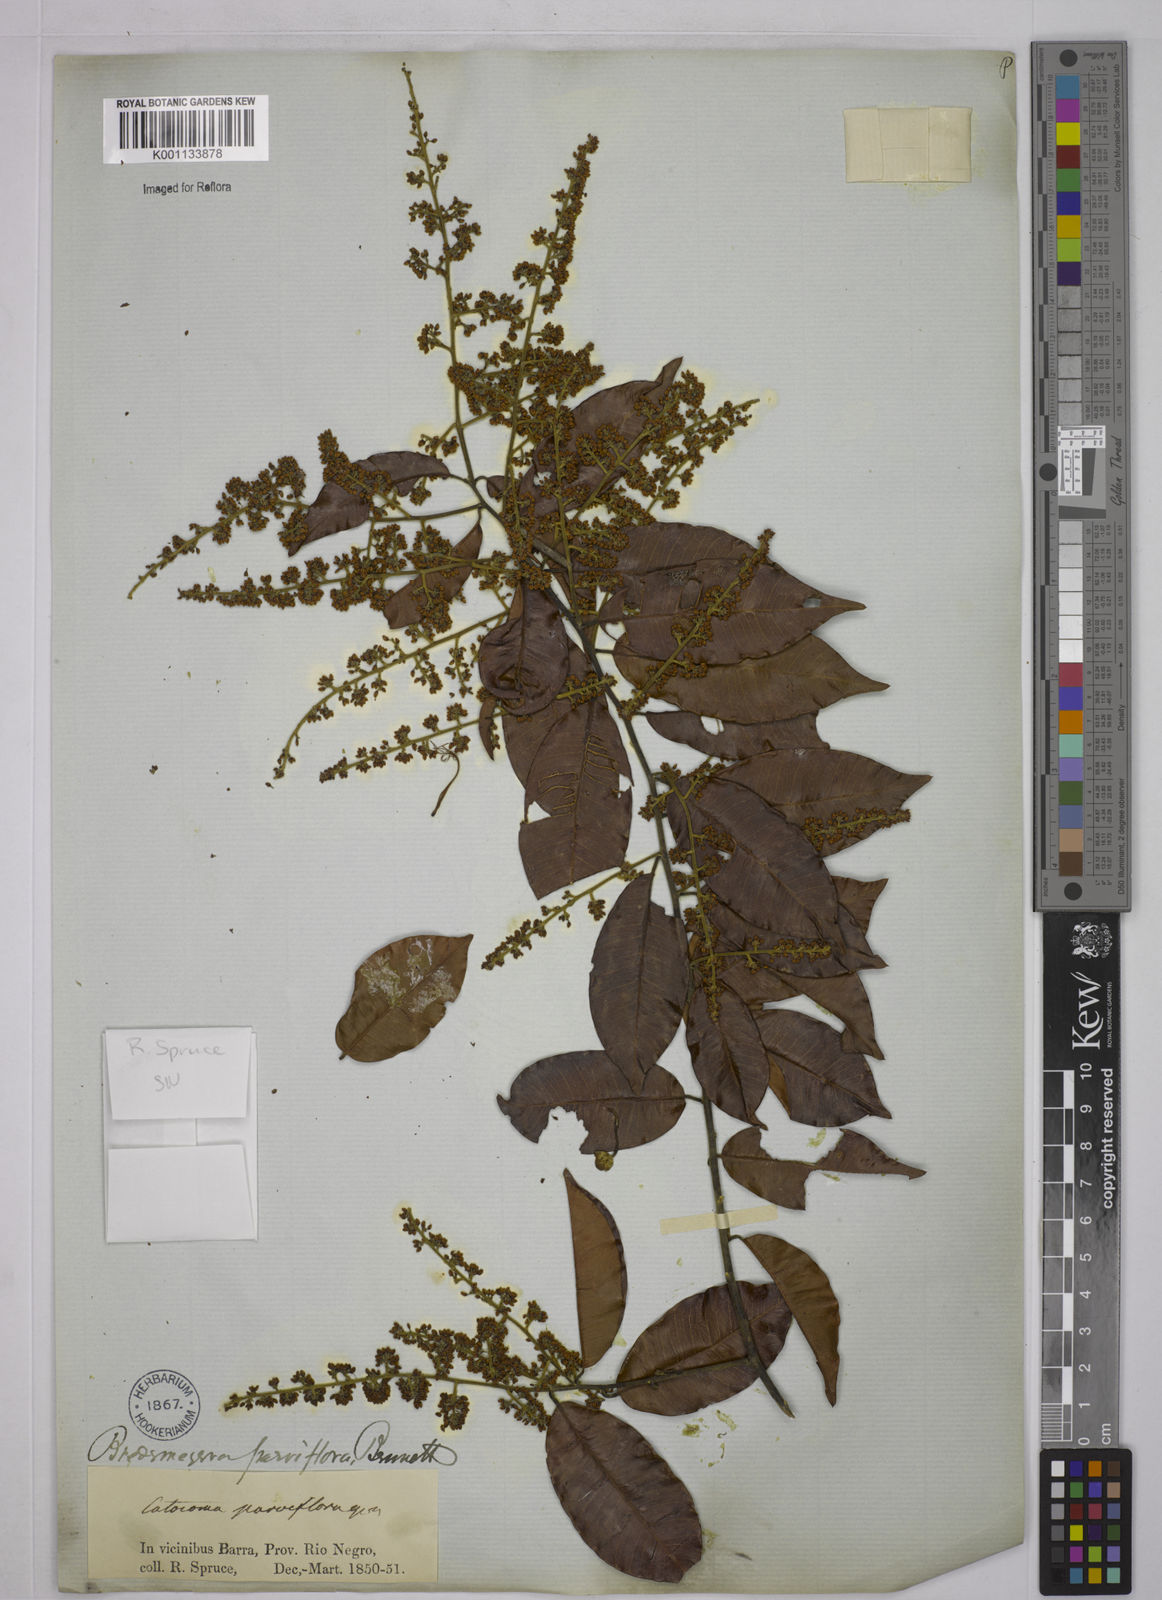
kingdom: Plantae
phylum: Tracheophyta
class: Magnoliopsida
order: Fabales
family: Polygalaceae
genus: Bredemeyera
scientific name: Bredemeyera myrtifolia
